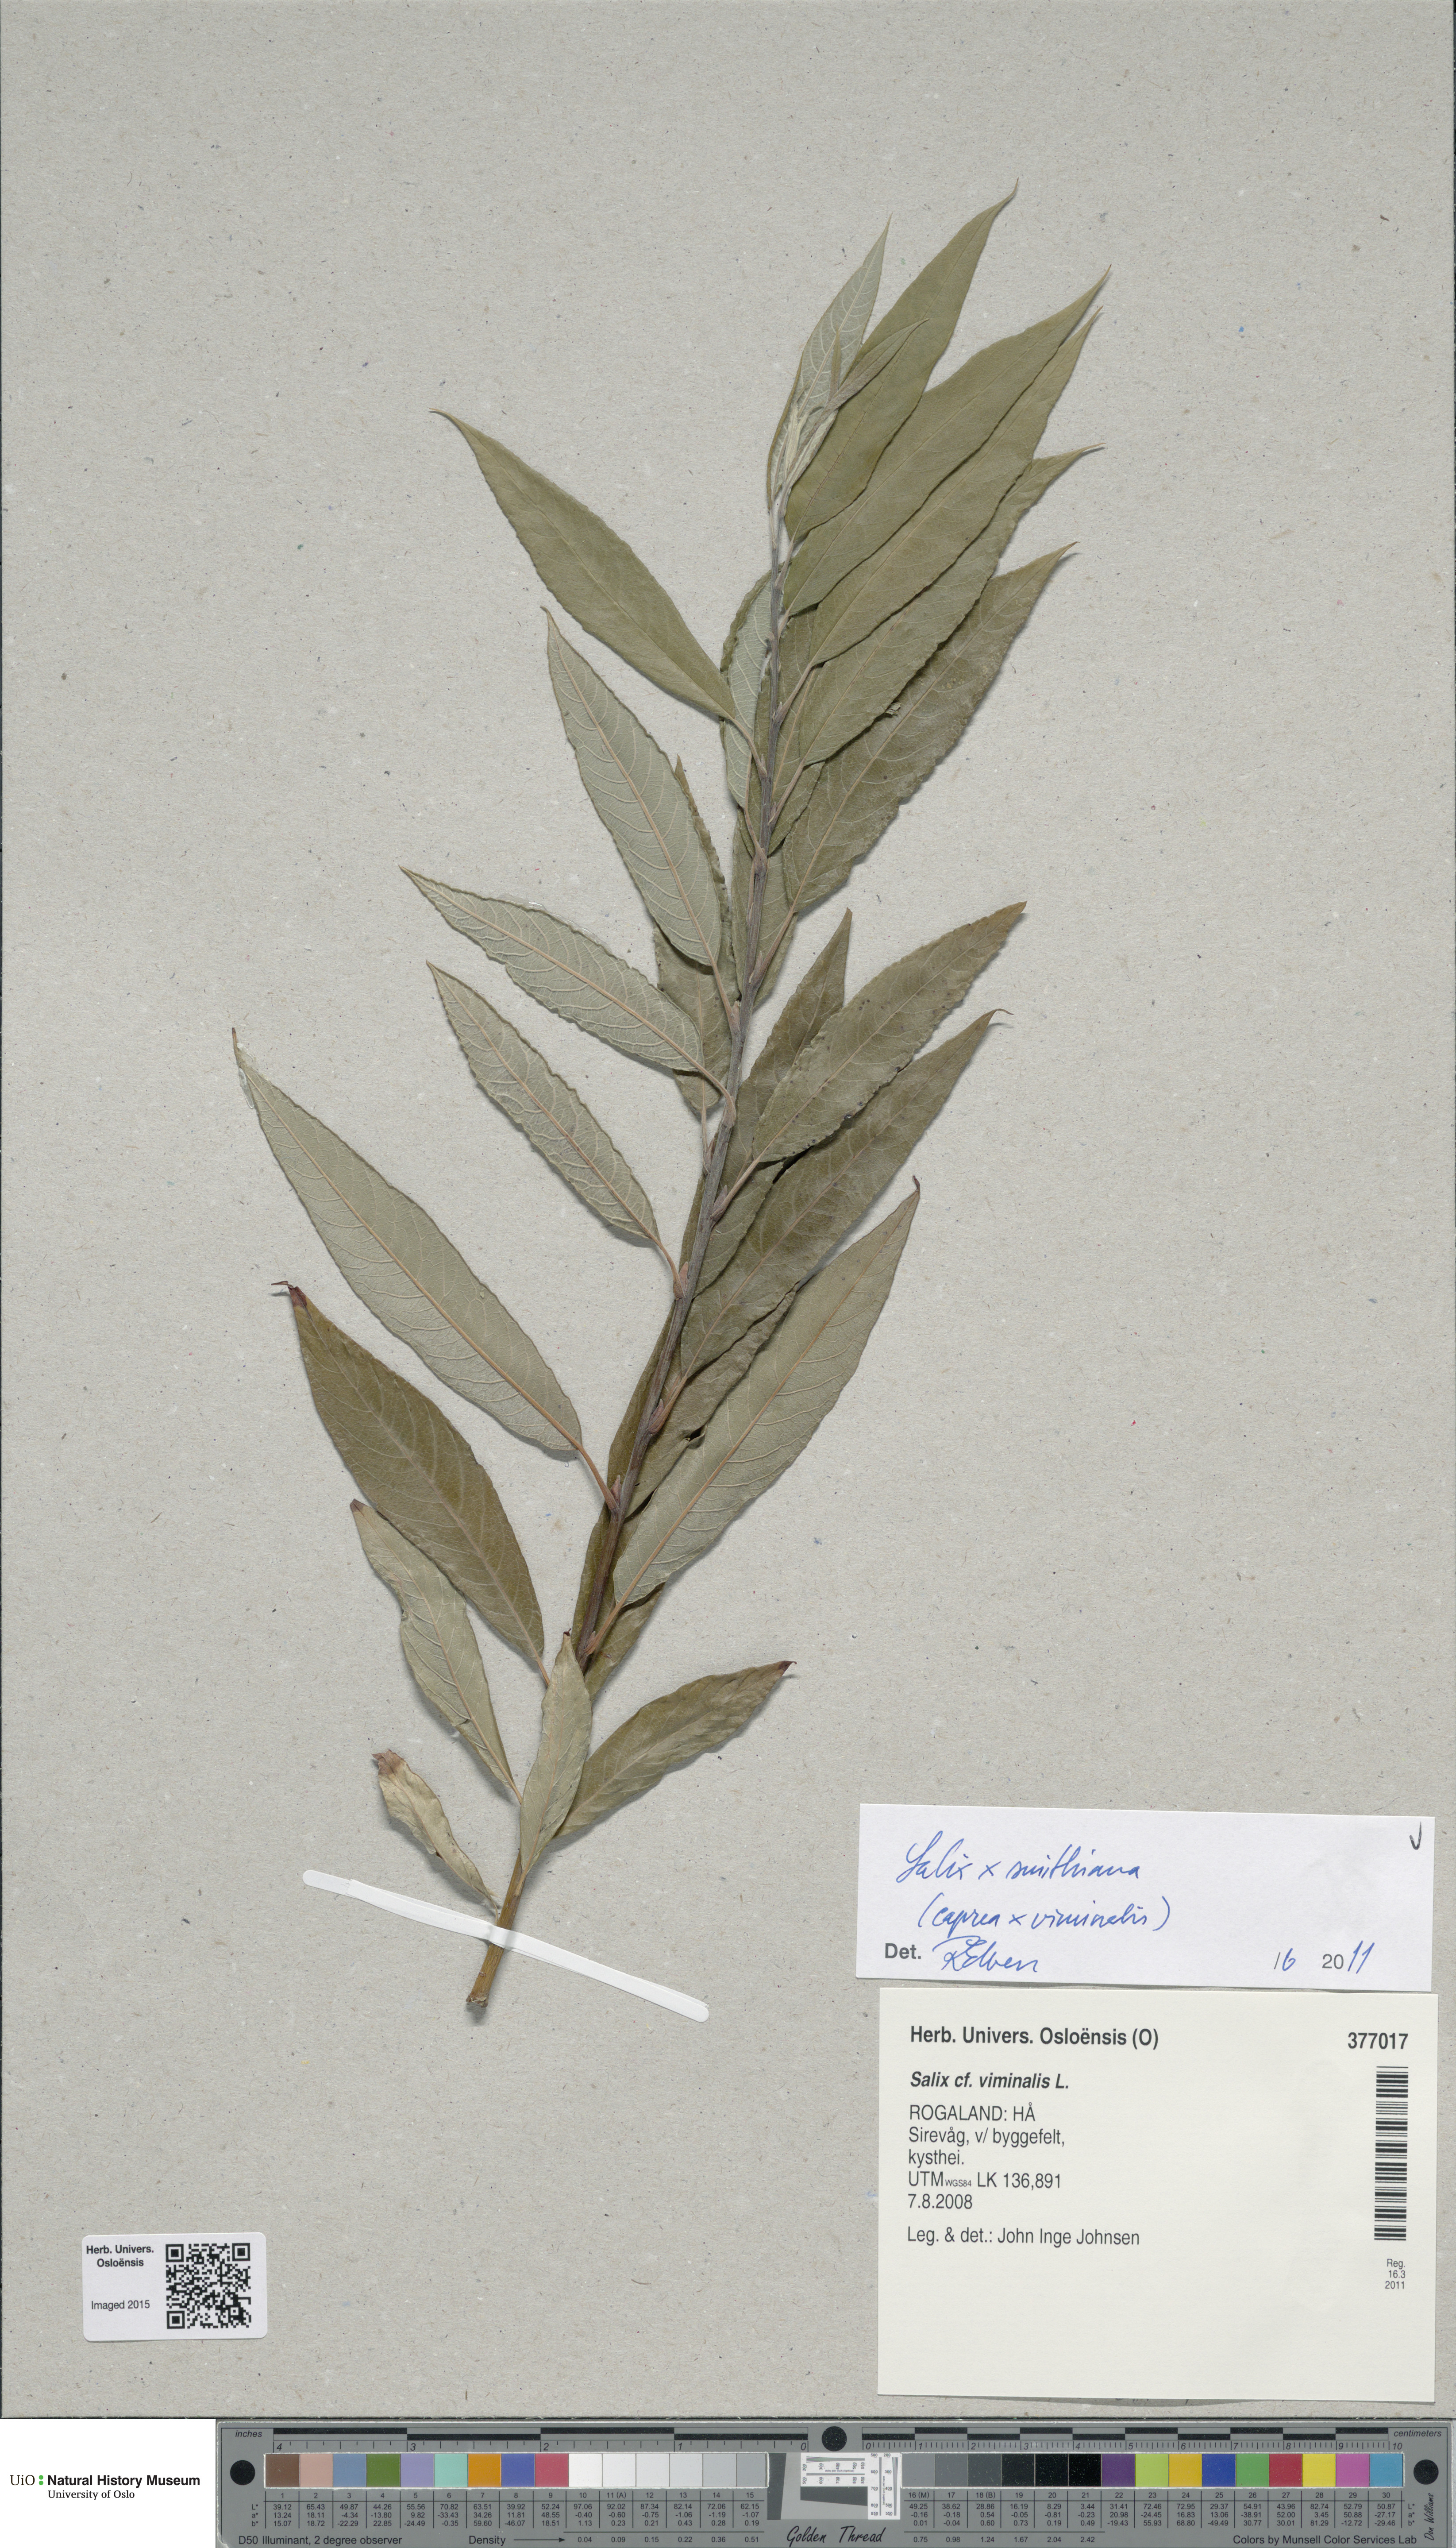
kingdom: Plantae
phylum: Tracheophyta
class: Magnoliopsida
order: Malpighiales
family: Salicaceae
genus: Salix
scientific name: Salix smithiana
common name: Silky-leaved osier
